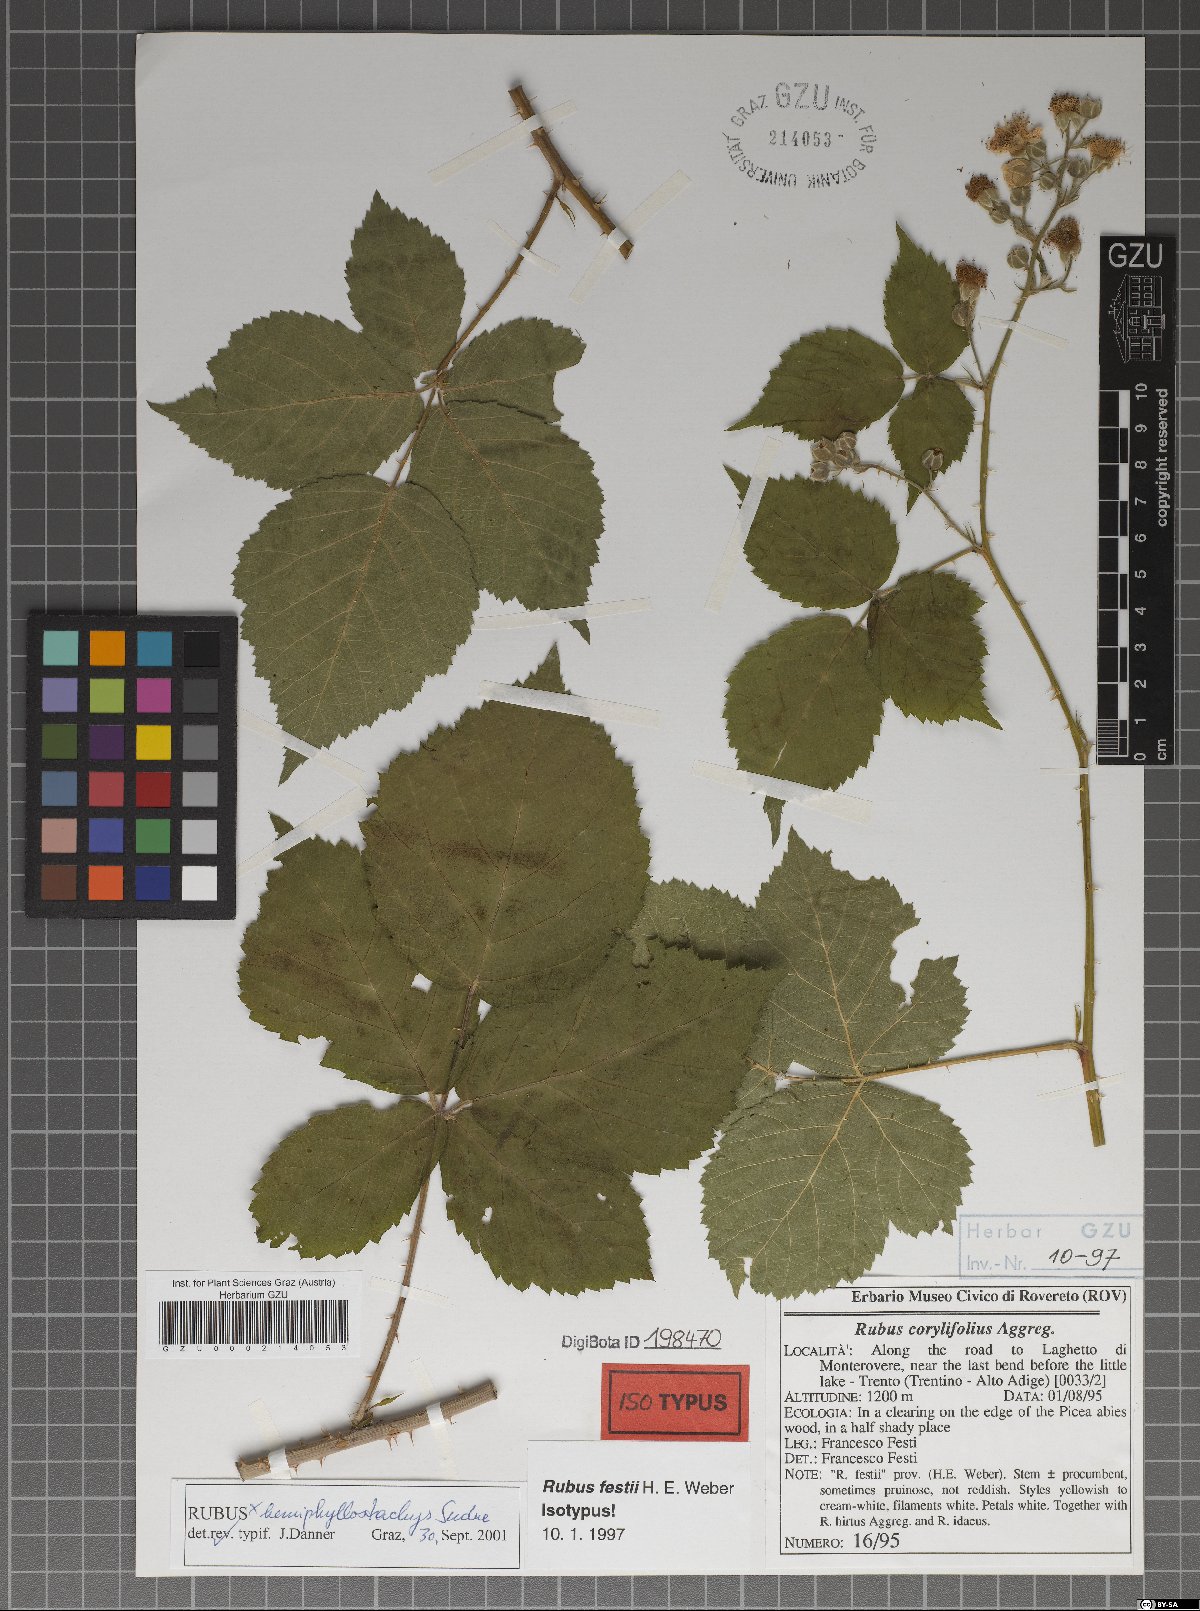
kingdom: Plantae
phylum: Tracheophyta
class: Magnoliopsida
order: Rosales
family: Rosaceae
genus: Rubus
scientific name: Rubus festii
